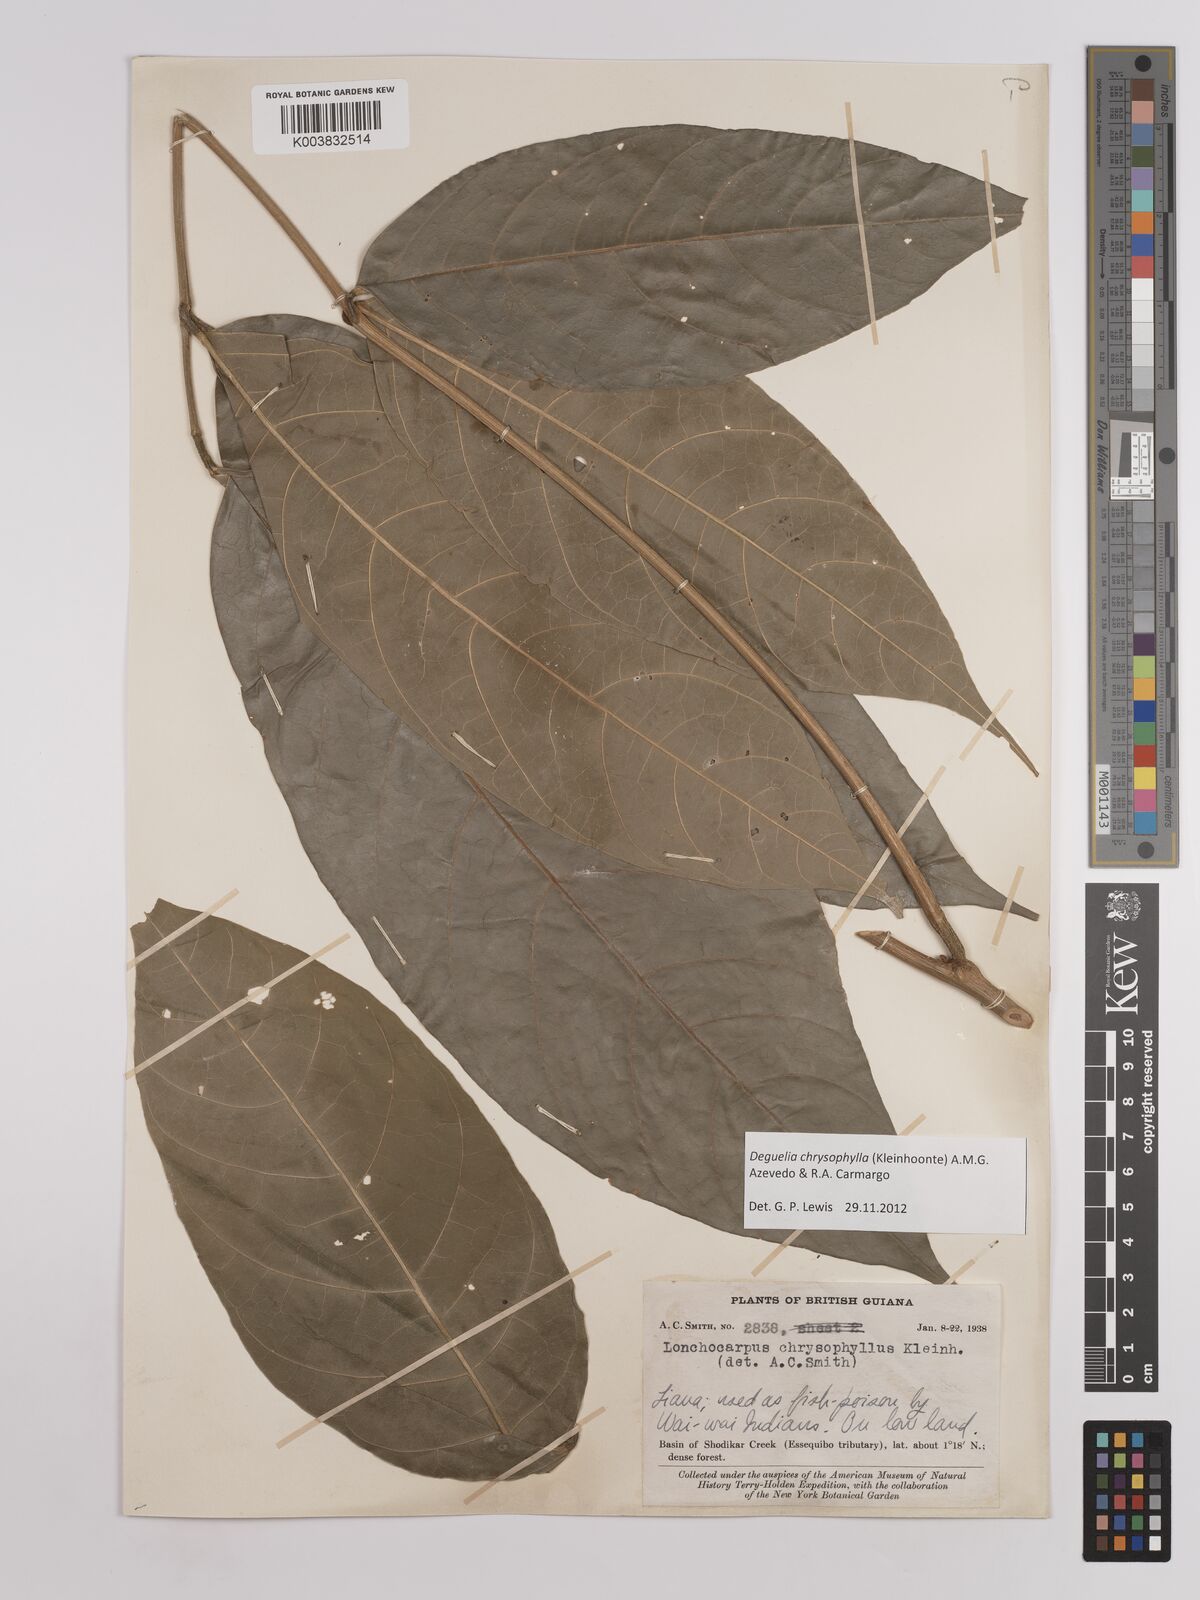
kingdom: Plantae
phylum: Tracheophyta
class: Magnoliopsida
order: Fabales
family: Fabaceae
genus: Deguelia
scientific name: Deguelia chrysophylla
